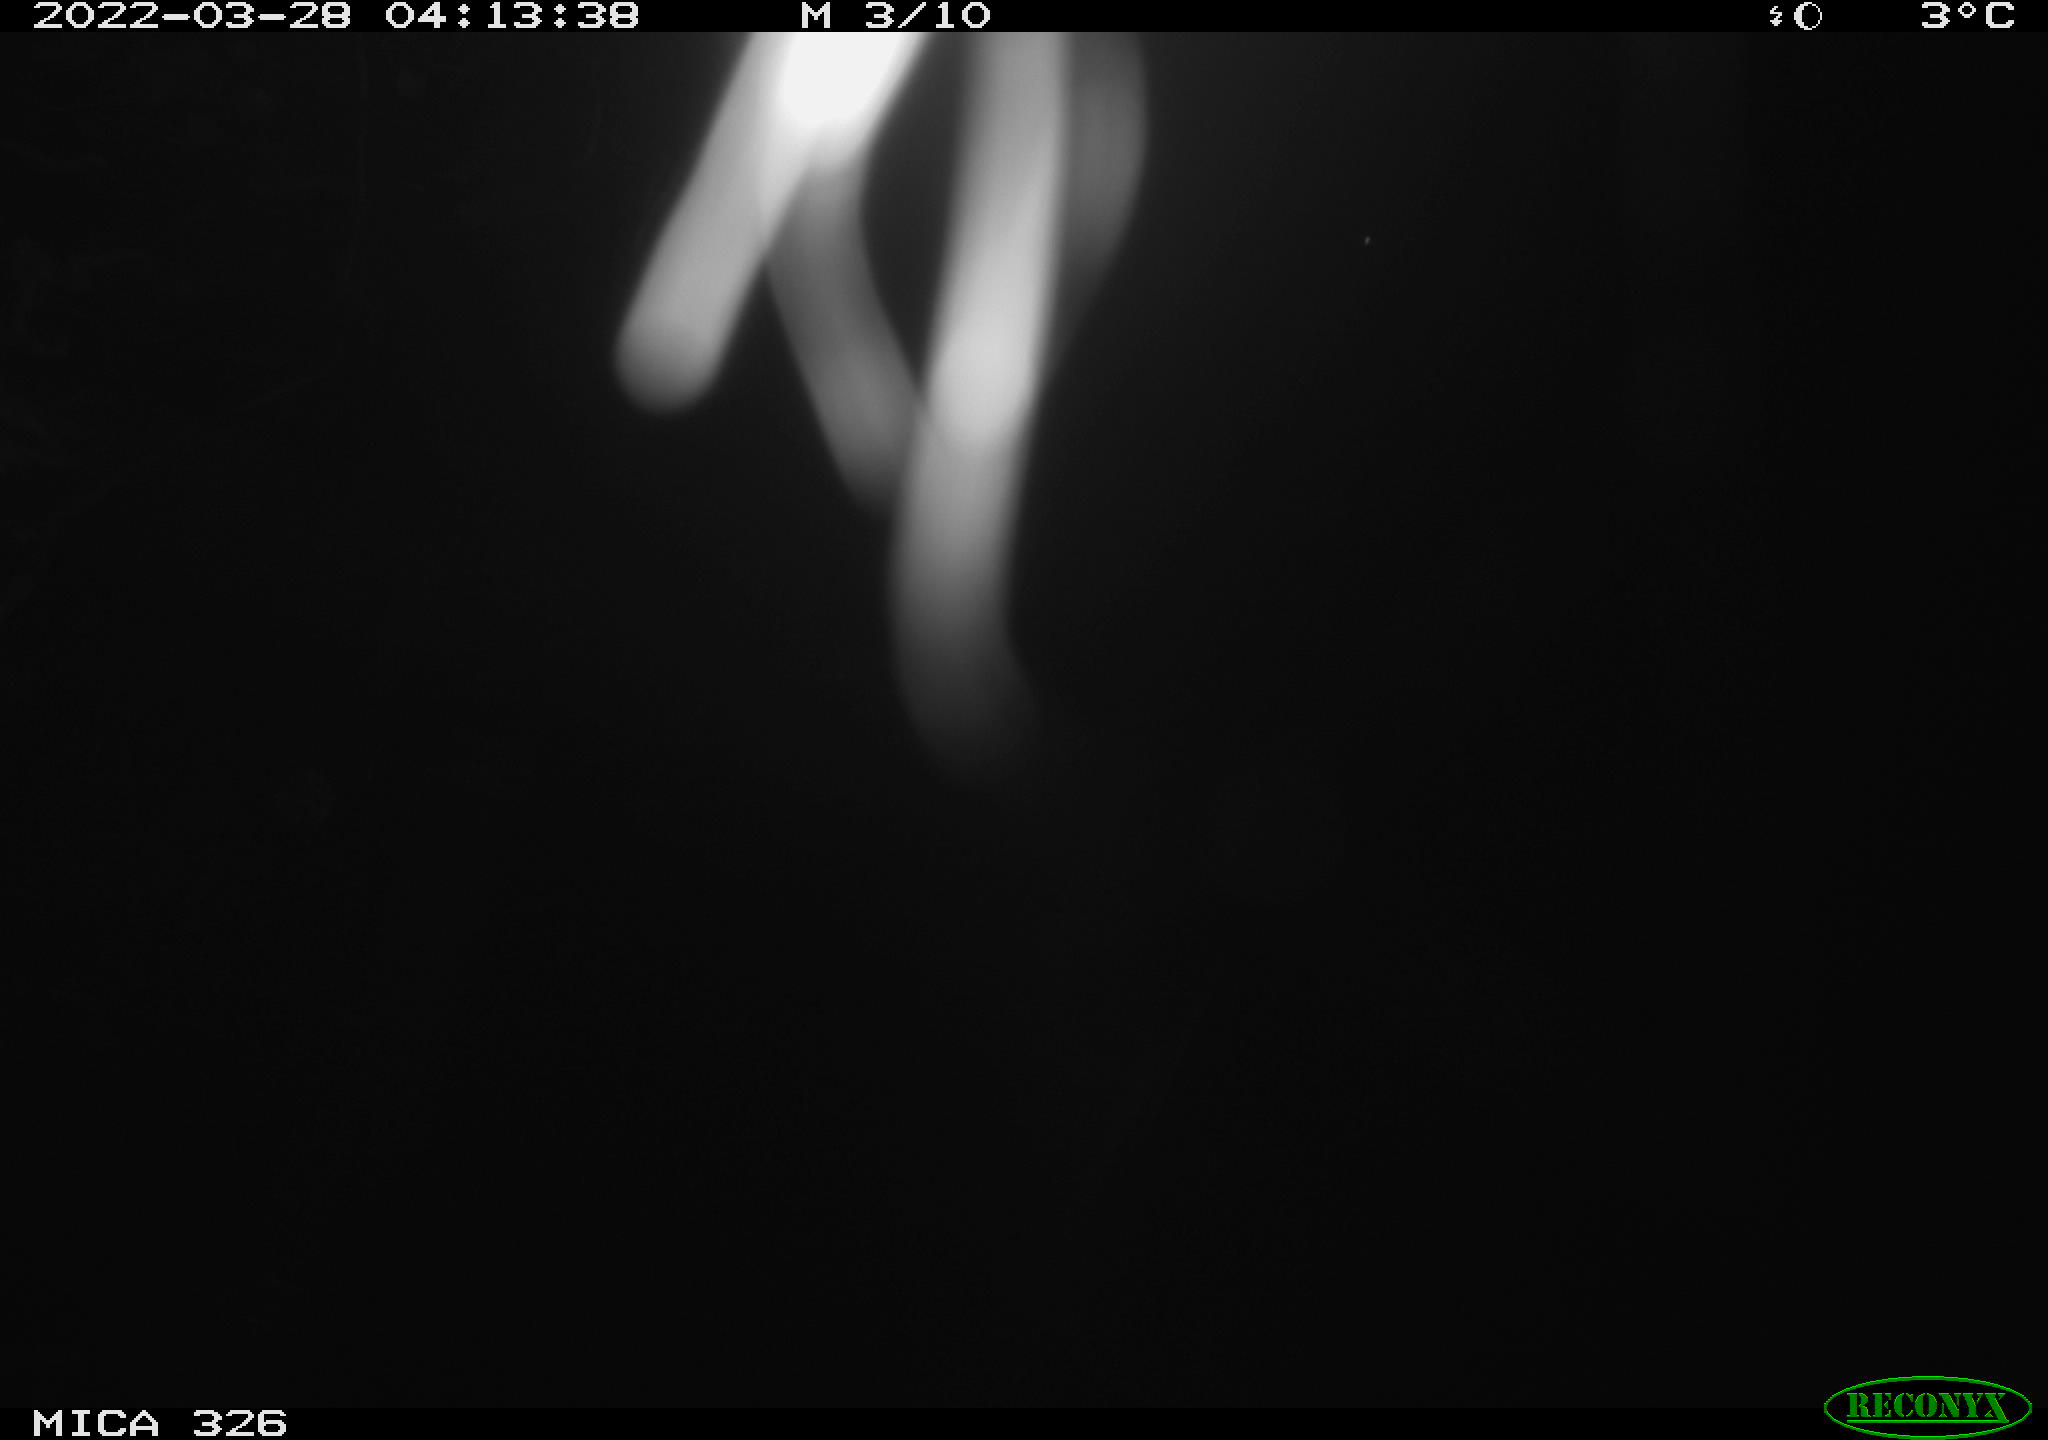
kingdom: Animalia
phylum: Chordata
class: Mammalia
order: Rodentia
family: Muridae
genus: Rattus
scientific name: Rattus norvegicus
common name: Brown rat
